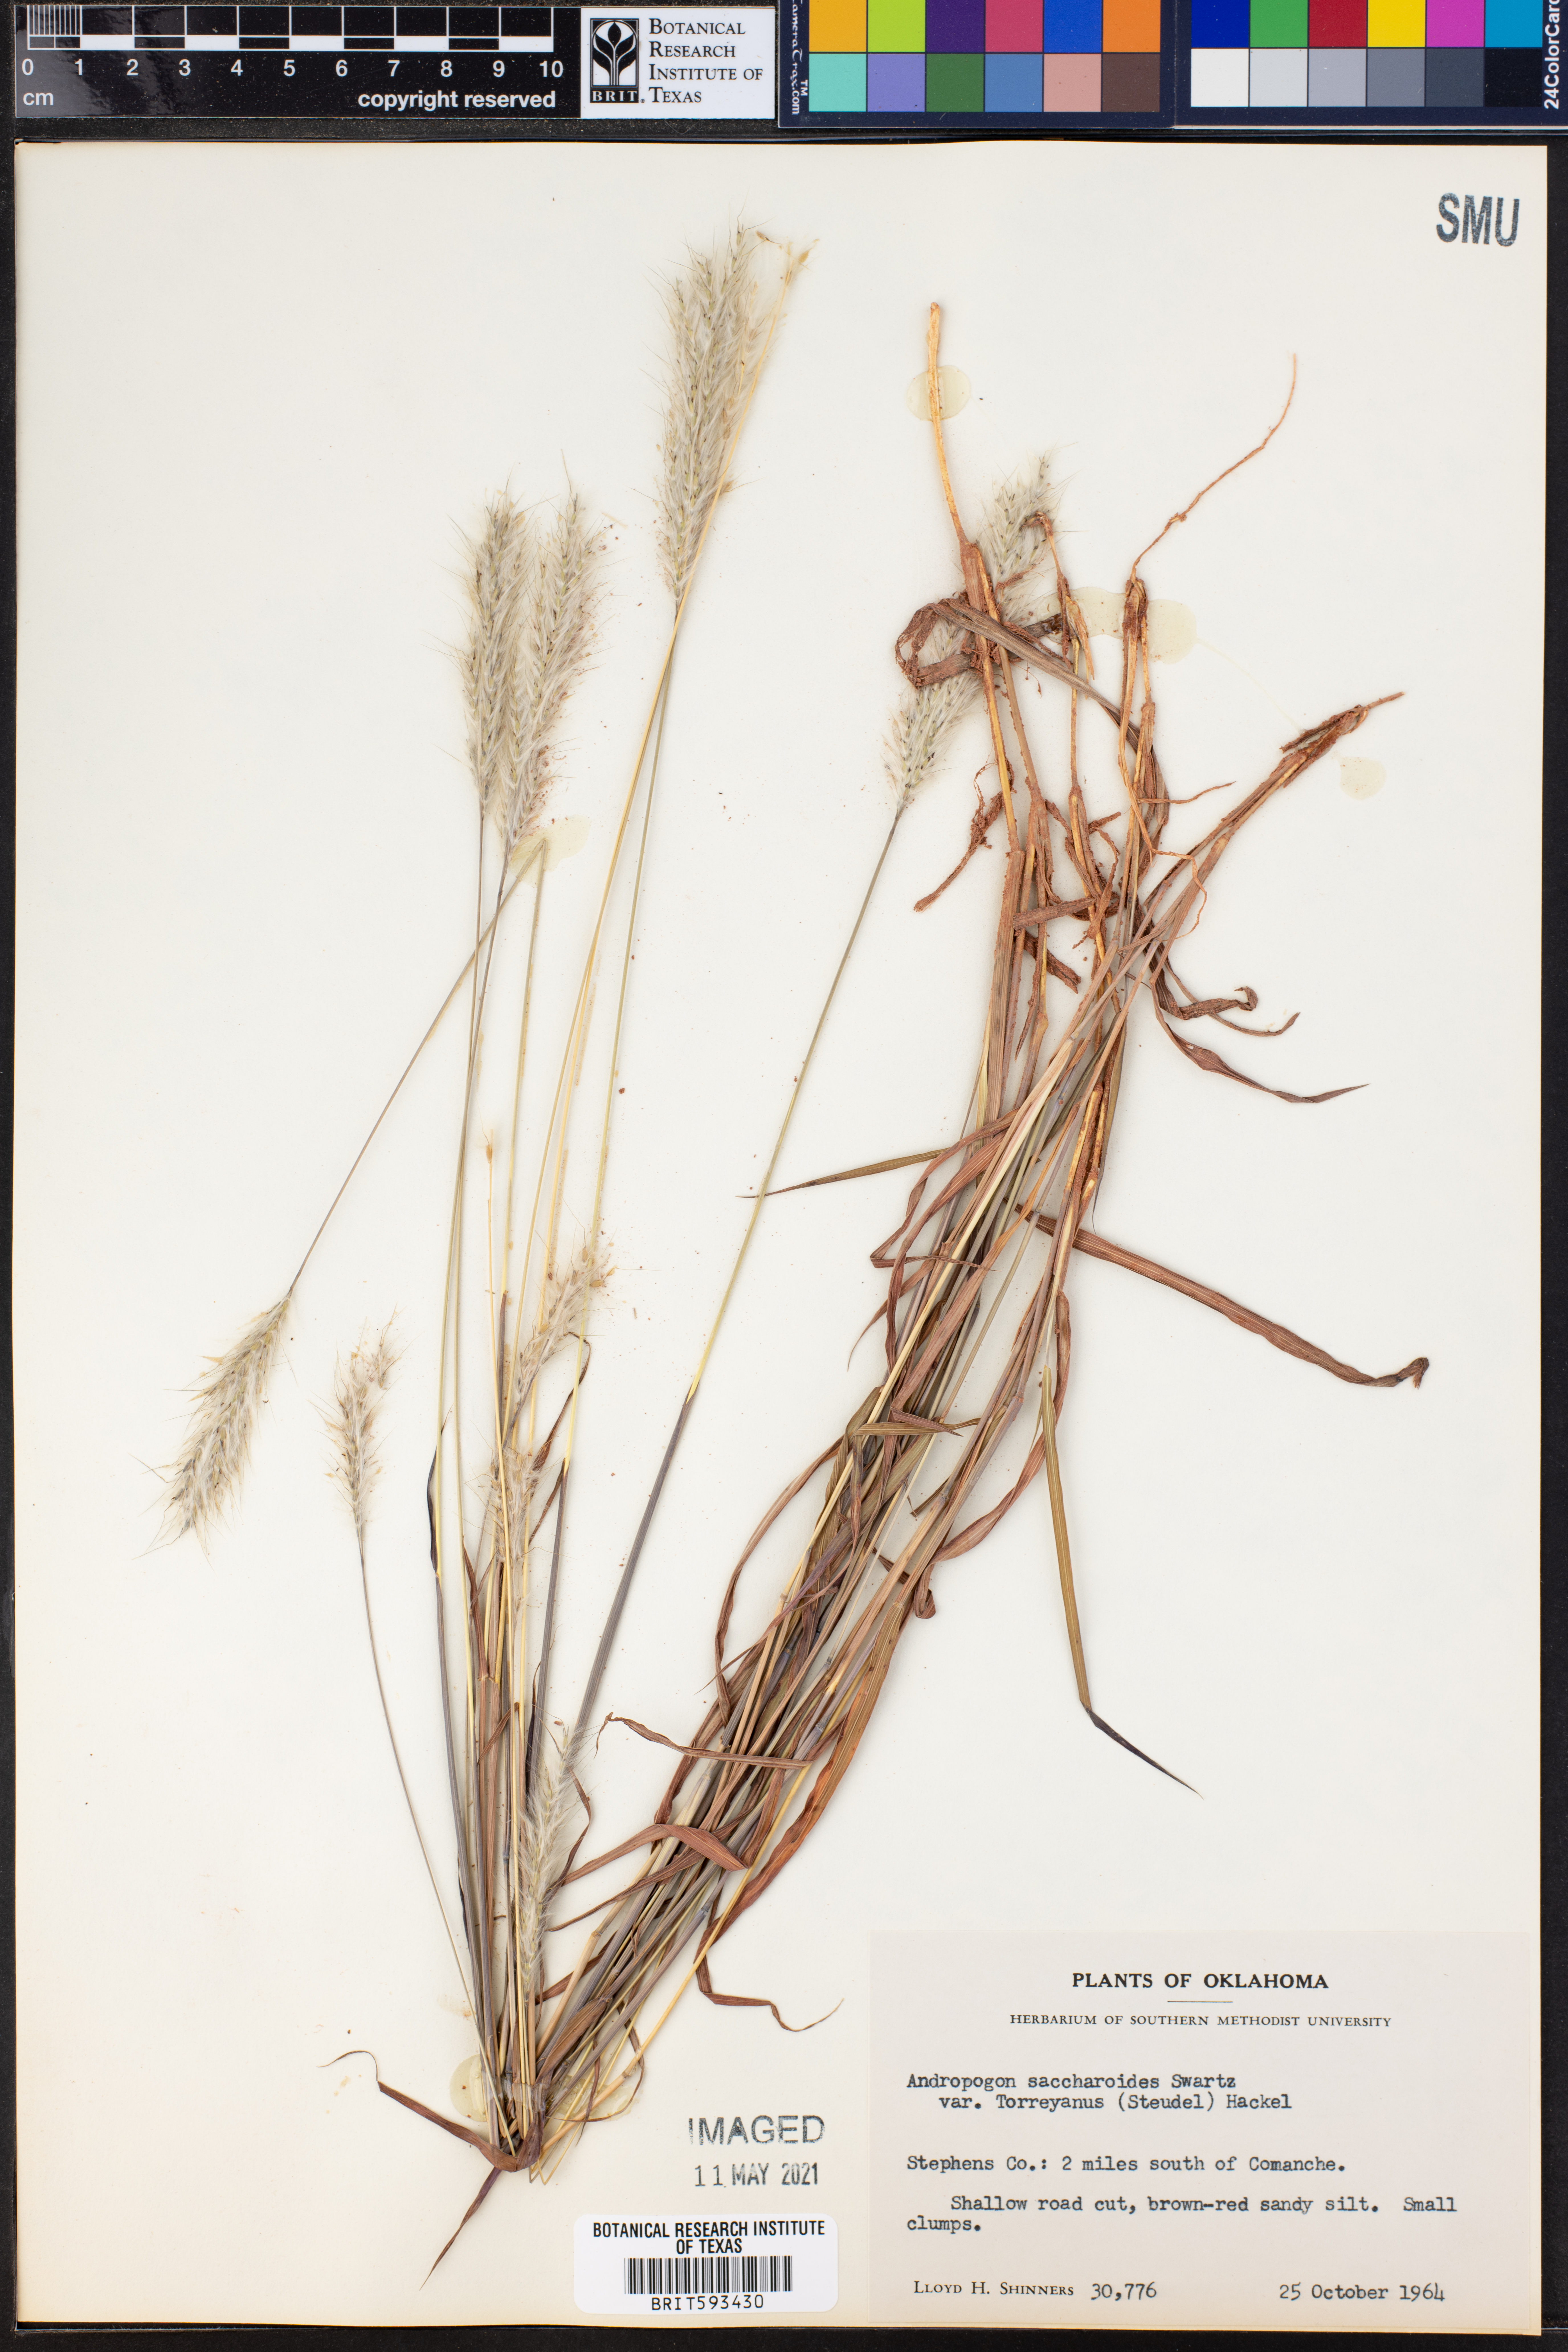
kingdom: Plantae
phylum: Tracheophyta
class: Liliopsida
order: Poales
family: Poaceae
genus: Bothriochloa
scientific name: Bothriochloa torreyana
